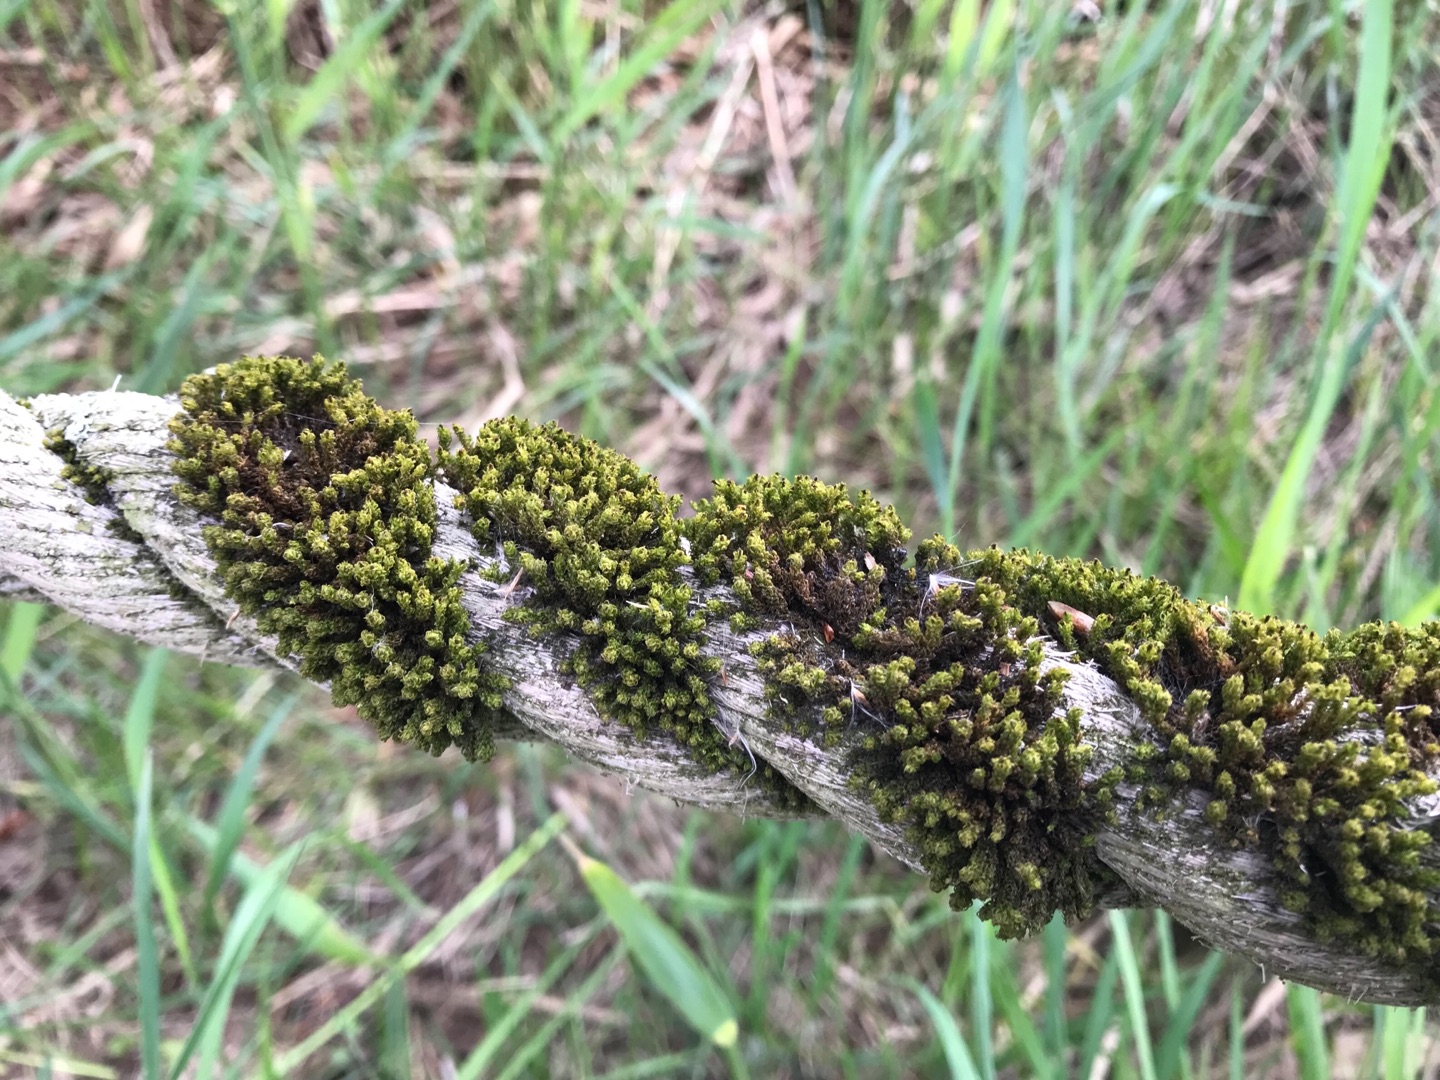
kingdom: Plantae
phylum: Bryophyta
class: Bryopsida
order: Orthotrichales
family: Orthotrichaceae
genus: Plenogemma
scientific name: Plenogemma phyllantha
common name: Stor låddenhætte
